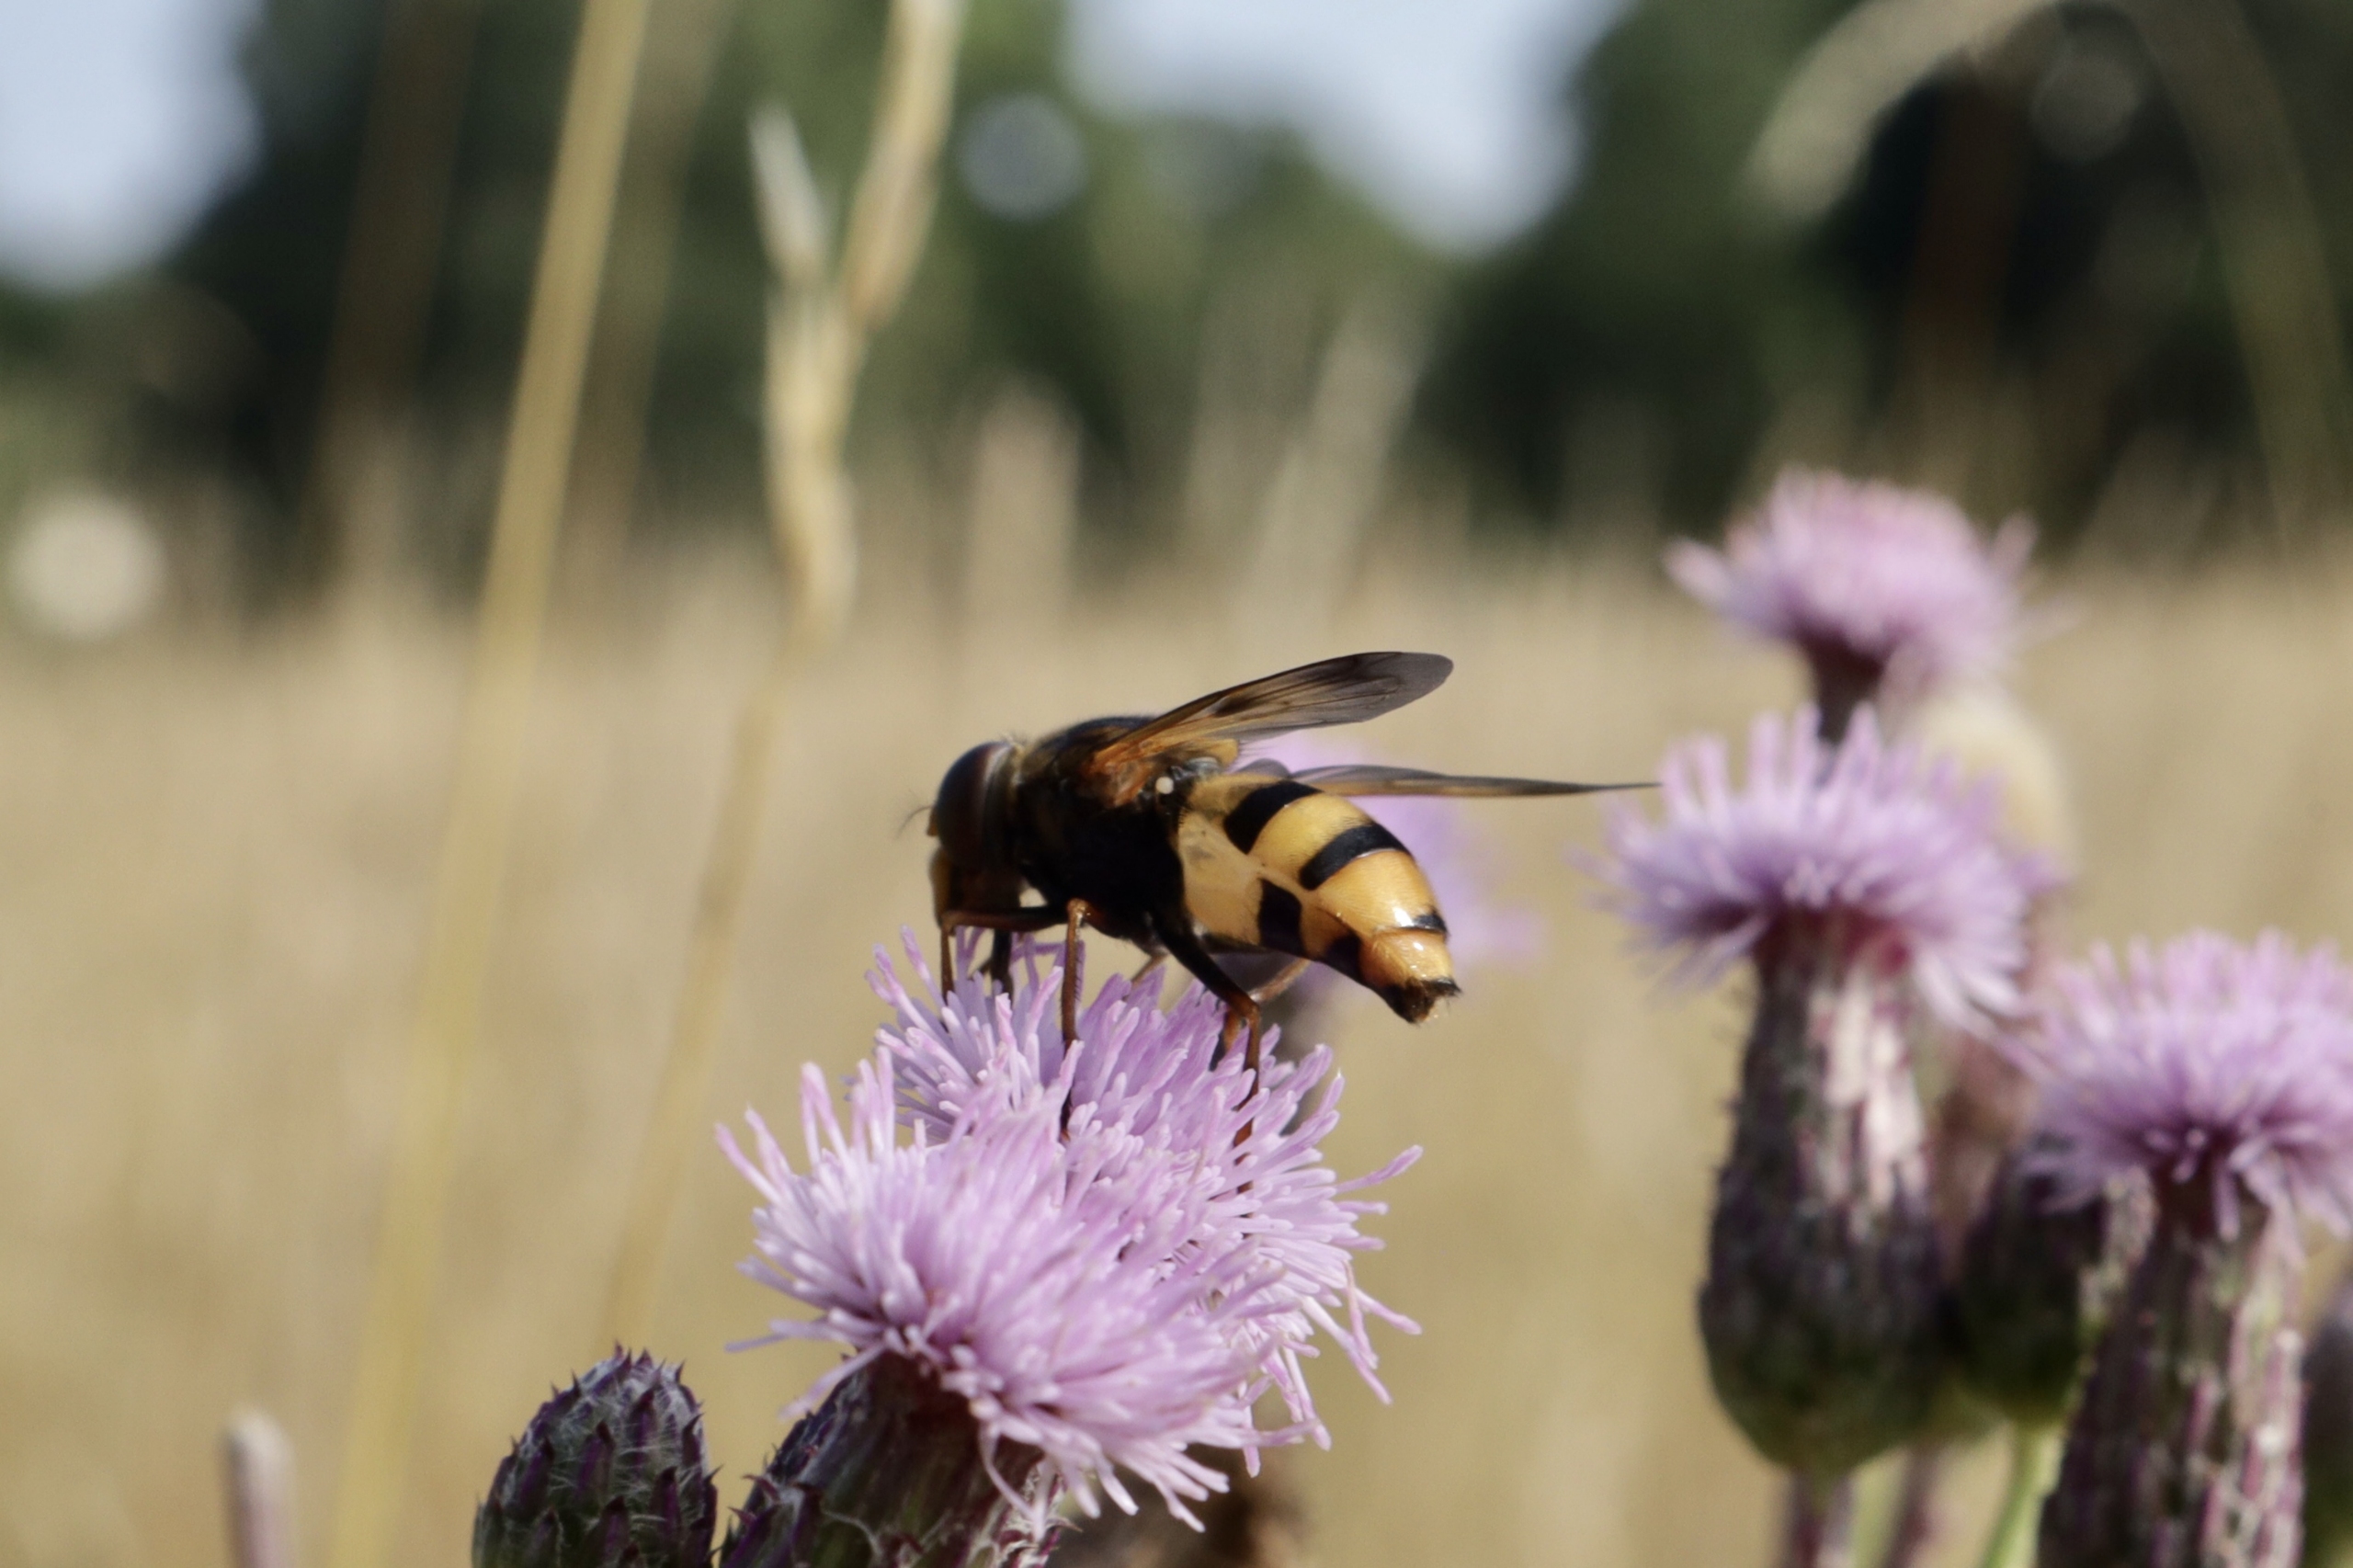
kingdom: Animalia
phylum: Arthropoda
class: Insecta
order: Diptera
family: Syrphidae
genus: Volucella
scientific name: Volucella inanis
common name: Gul humlesvirreflue
